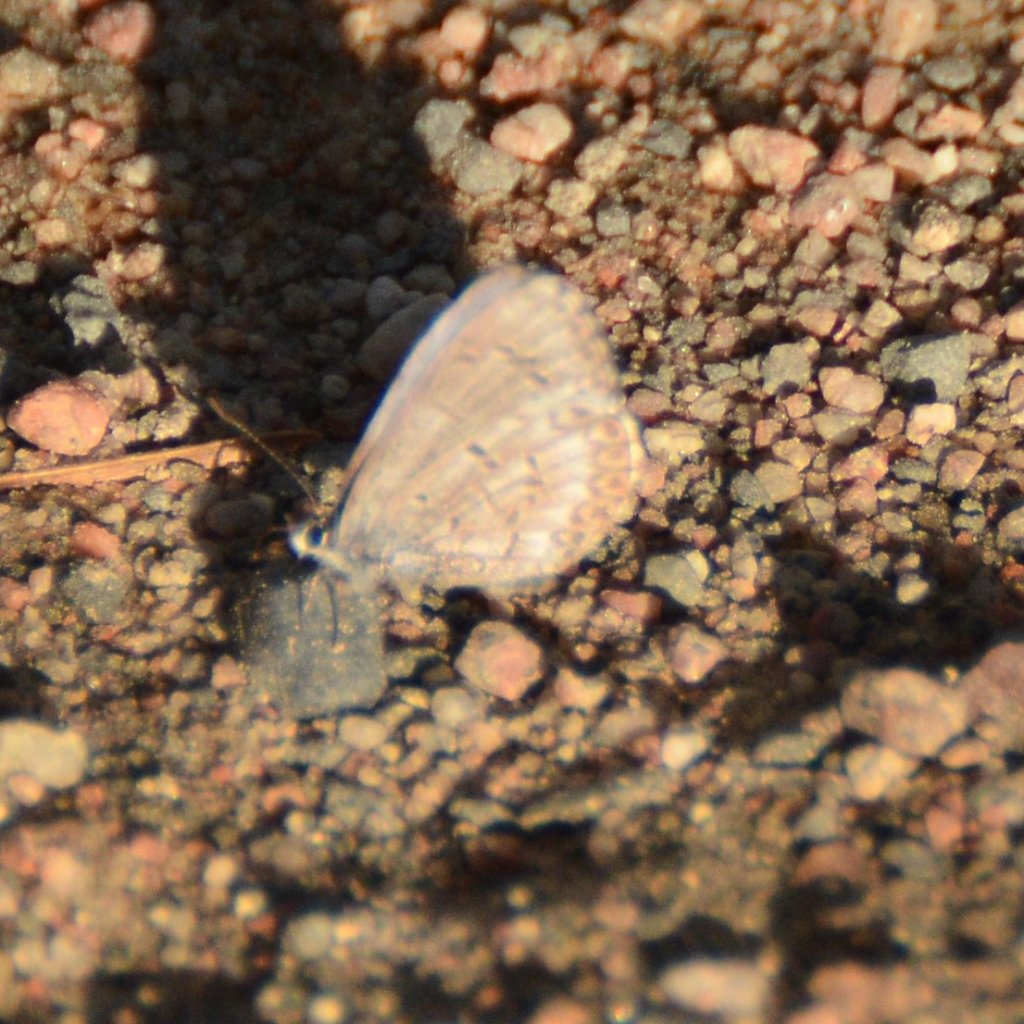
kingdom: Animalia
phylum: Arthropoda
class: Insecta
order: Lepidoptera
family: Lycaenidae
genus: Celastrina
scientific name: Celastrina lucia
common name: Northern Spring Azure
